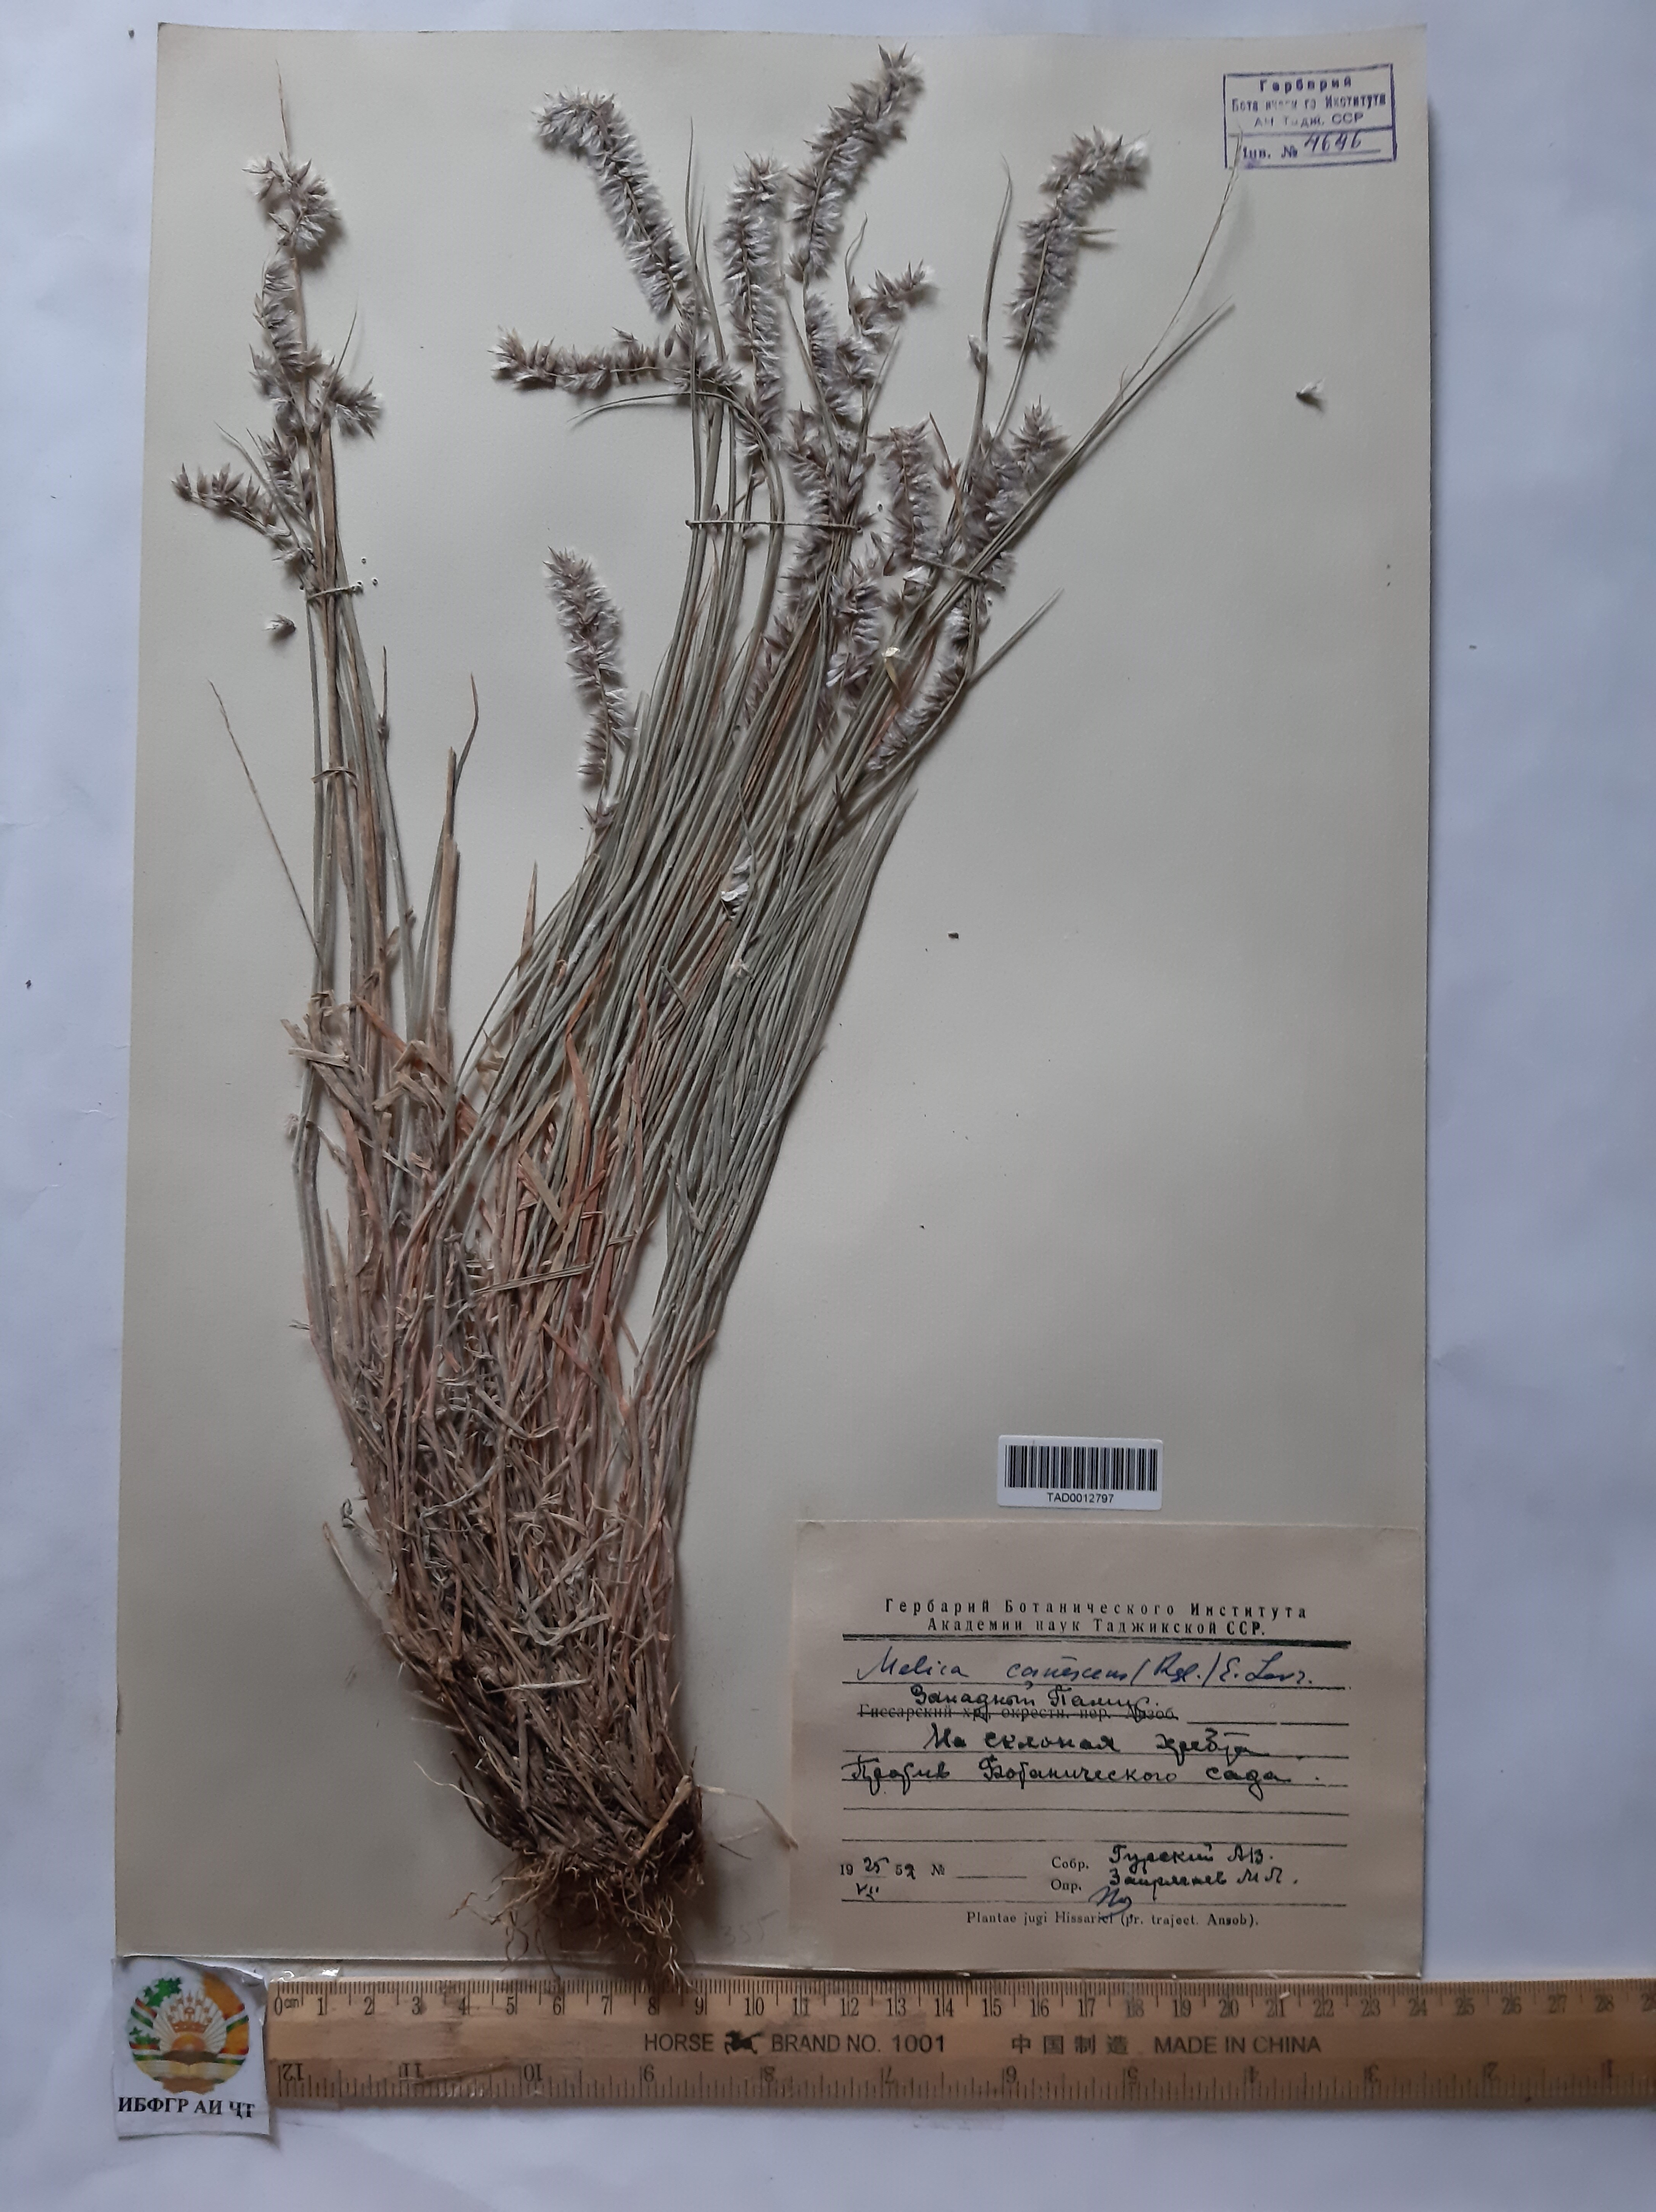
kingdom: Plantae
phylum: Tracheophyta
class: Liliopsida
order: Poales
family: Poaceae
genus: Melica
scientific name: Melica persica
